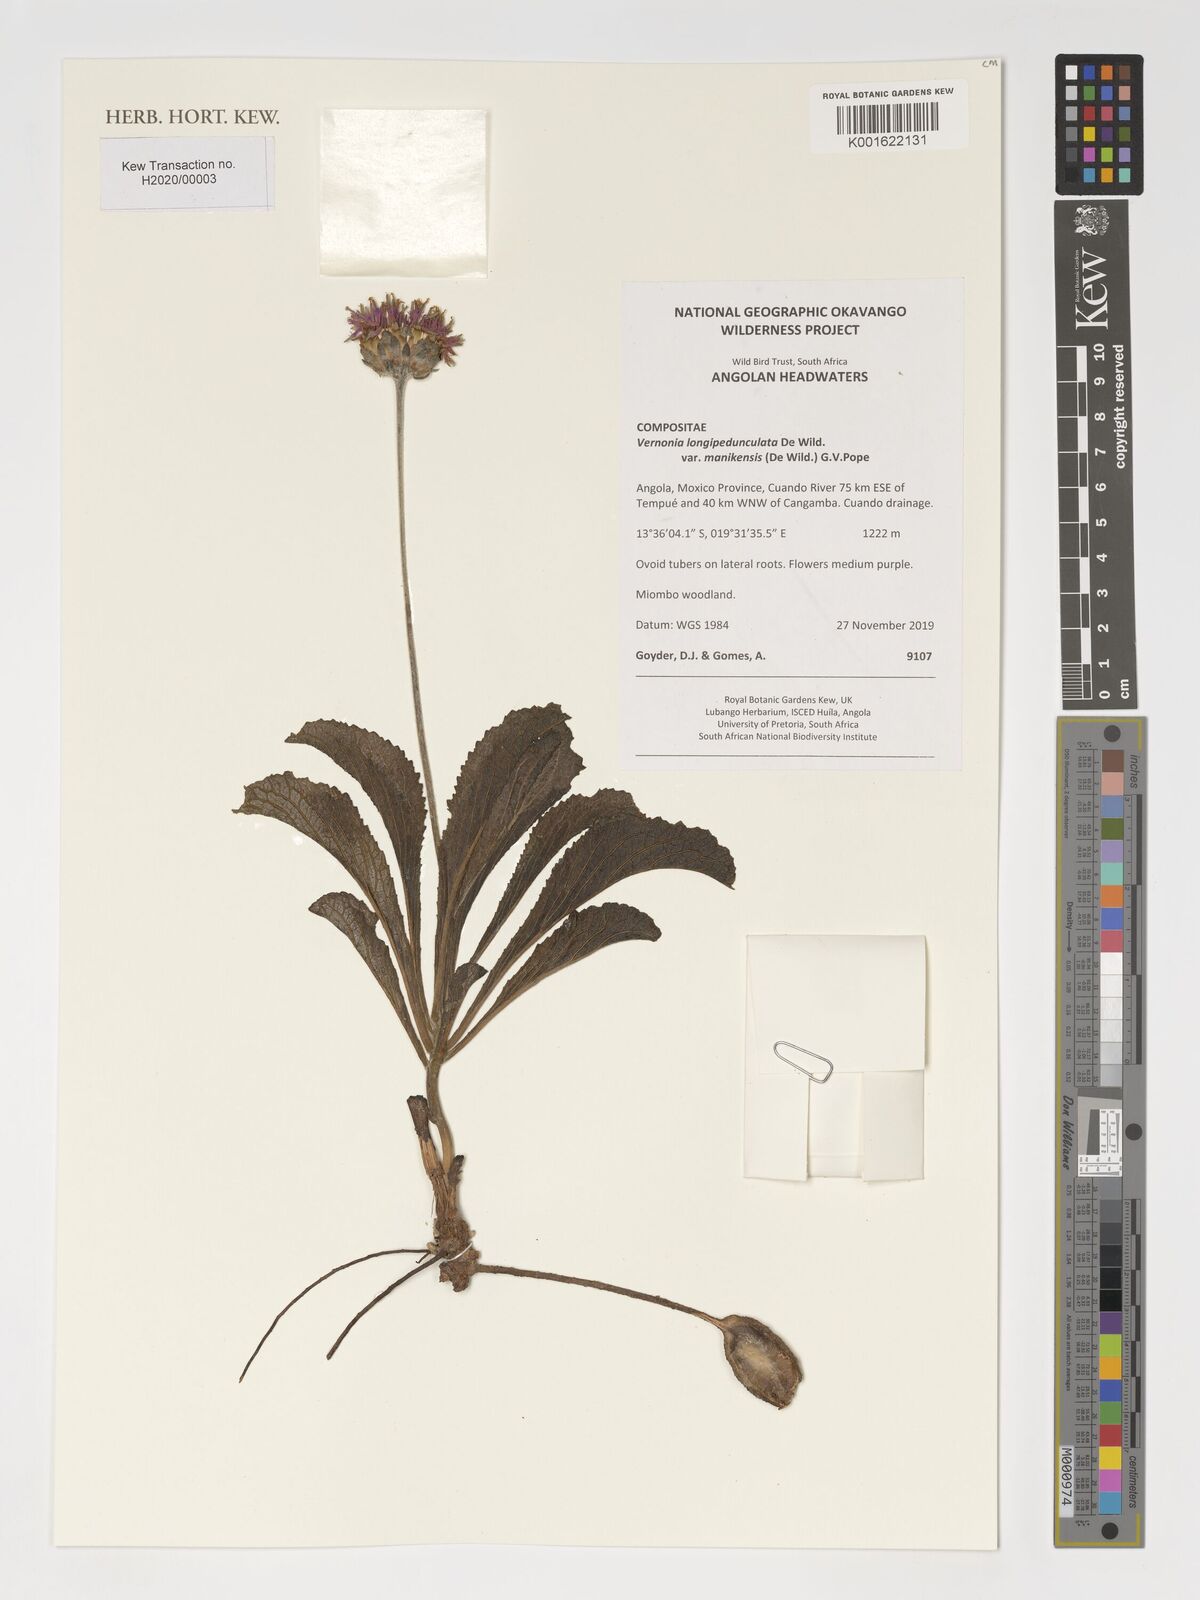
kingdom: Plantae
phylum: Tracheophyta
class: Magnoliopsida
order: Asterales
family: Asteraceae
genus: Vernonia
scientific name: Vernonia
